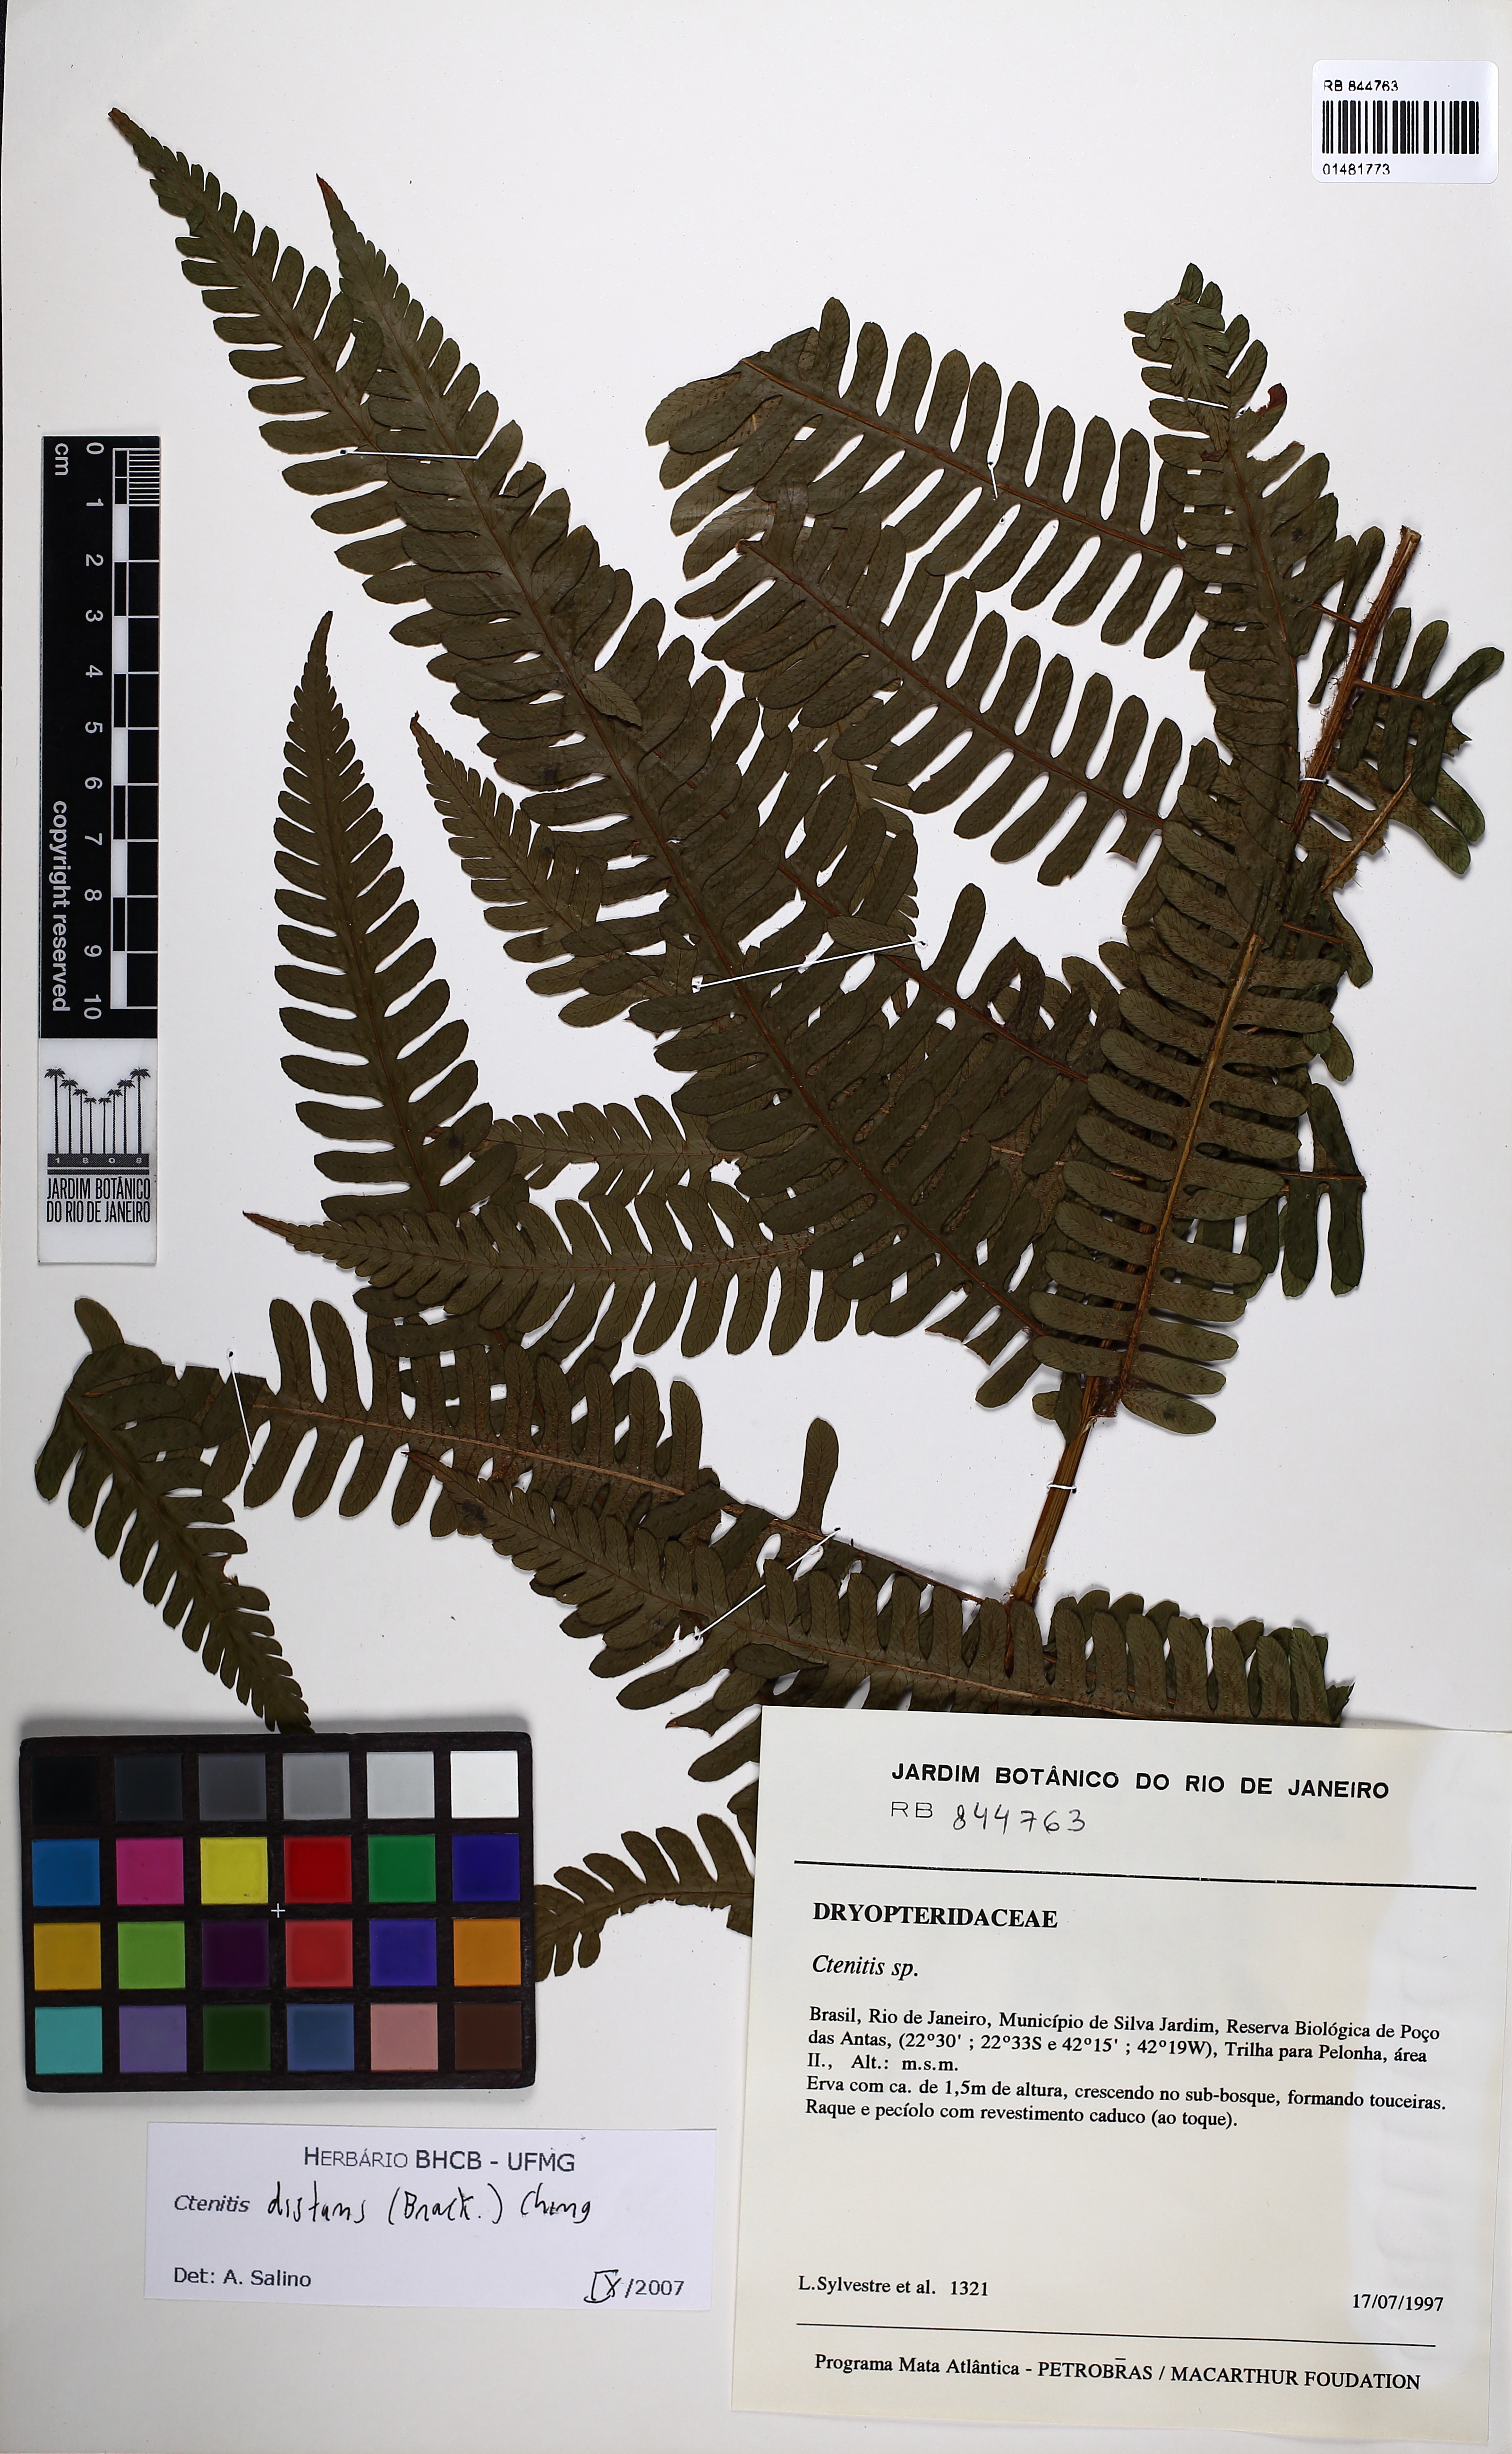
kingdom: Plantae
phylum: Tracheophyta
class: Polypodiopsida
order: Polypodiales
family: Dryopteridaceae
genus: Ctenitis
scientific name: Ctenitis distans
